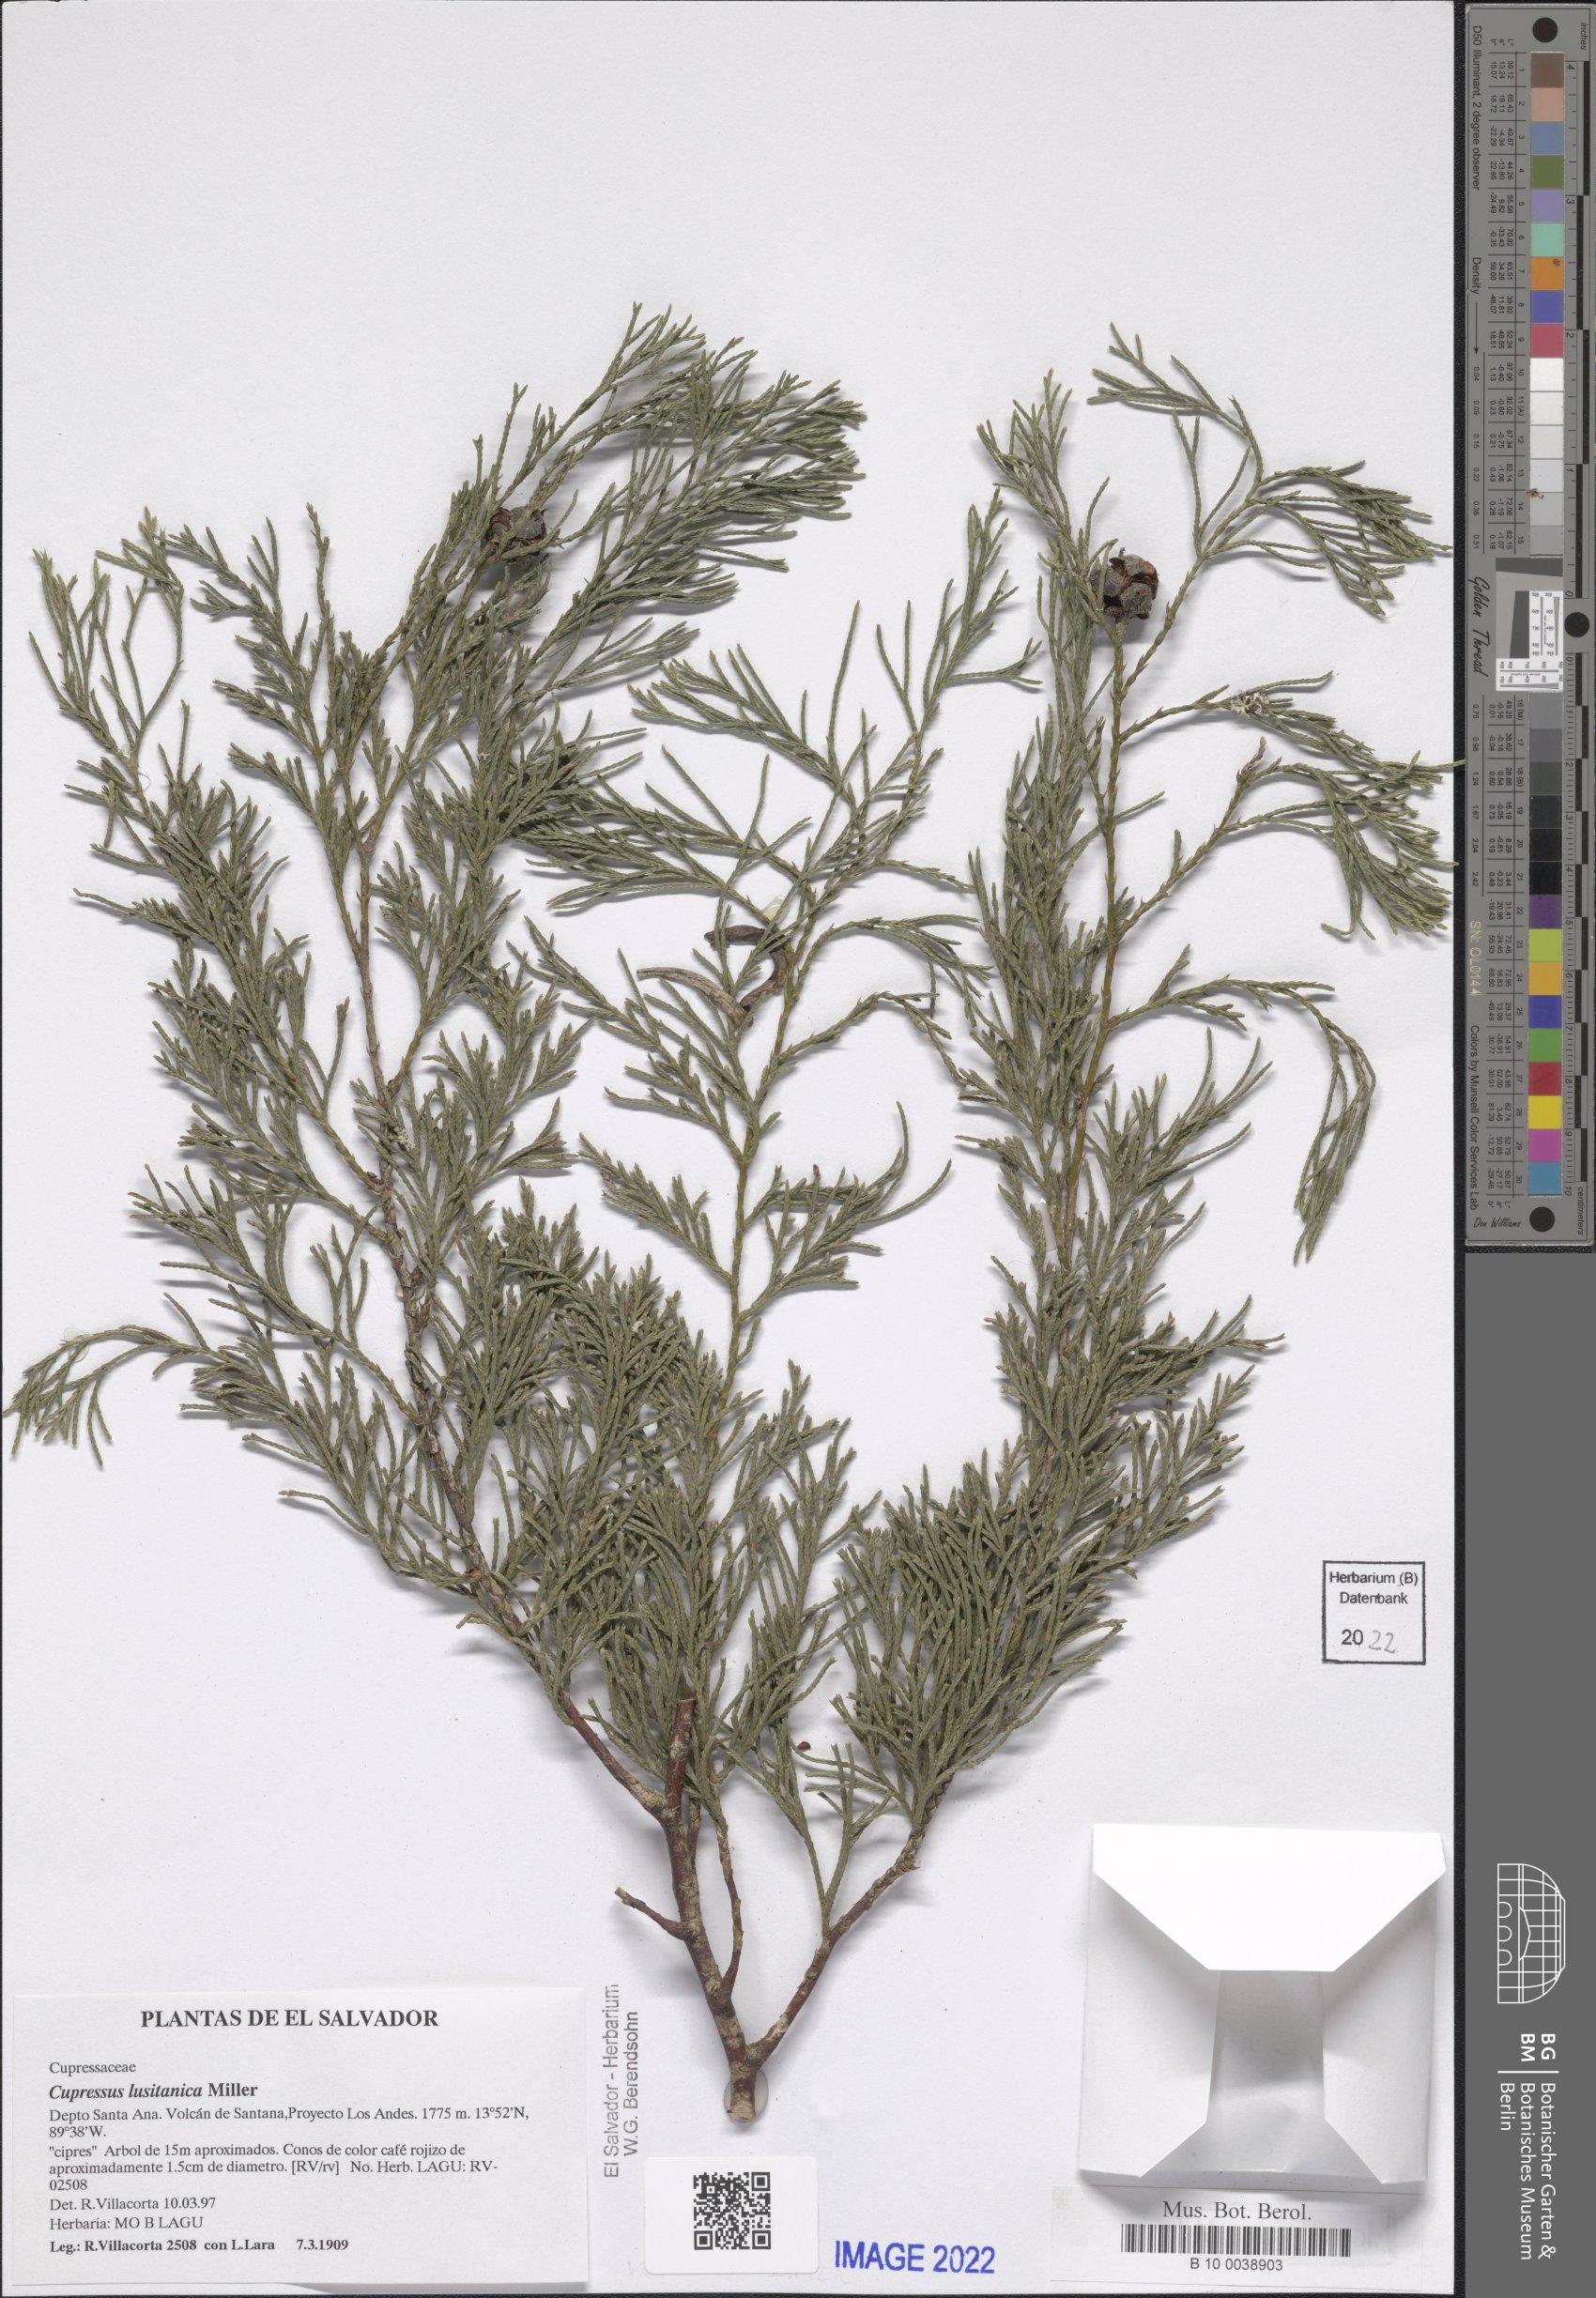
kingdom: Plantae
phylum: Tracheophyta
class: Pinopsida
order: Pinales
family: Cupressaceae
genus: Cupressus
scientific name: Cupressus lusitanica
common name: Mexican cypress
